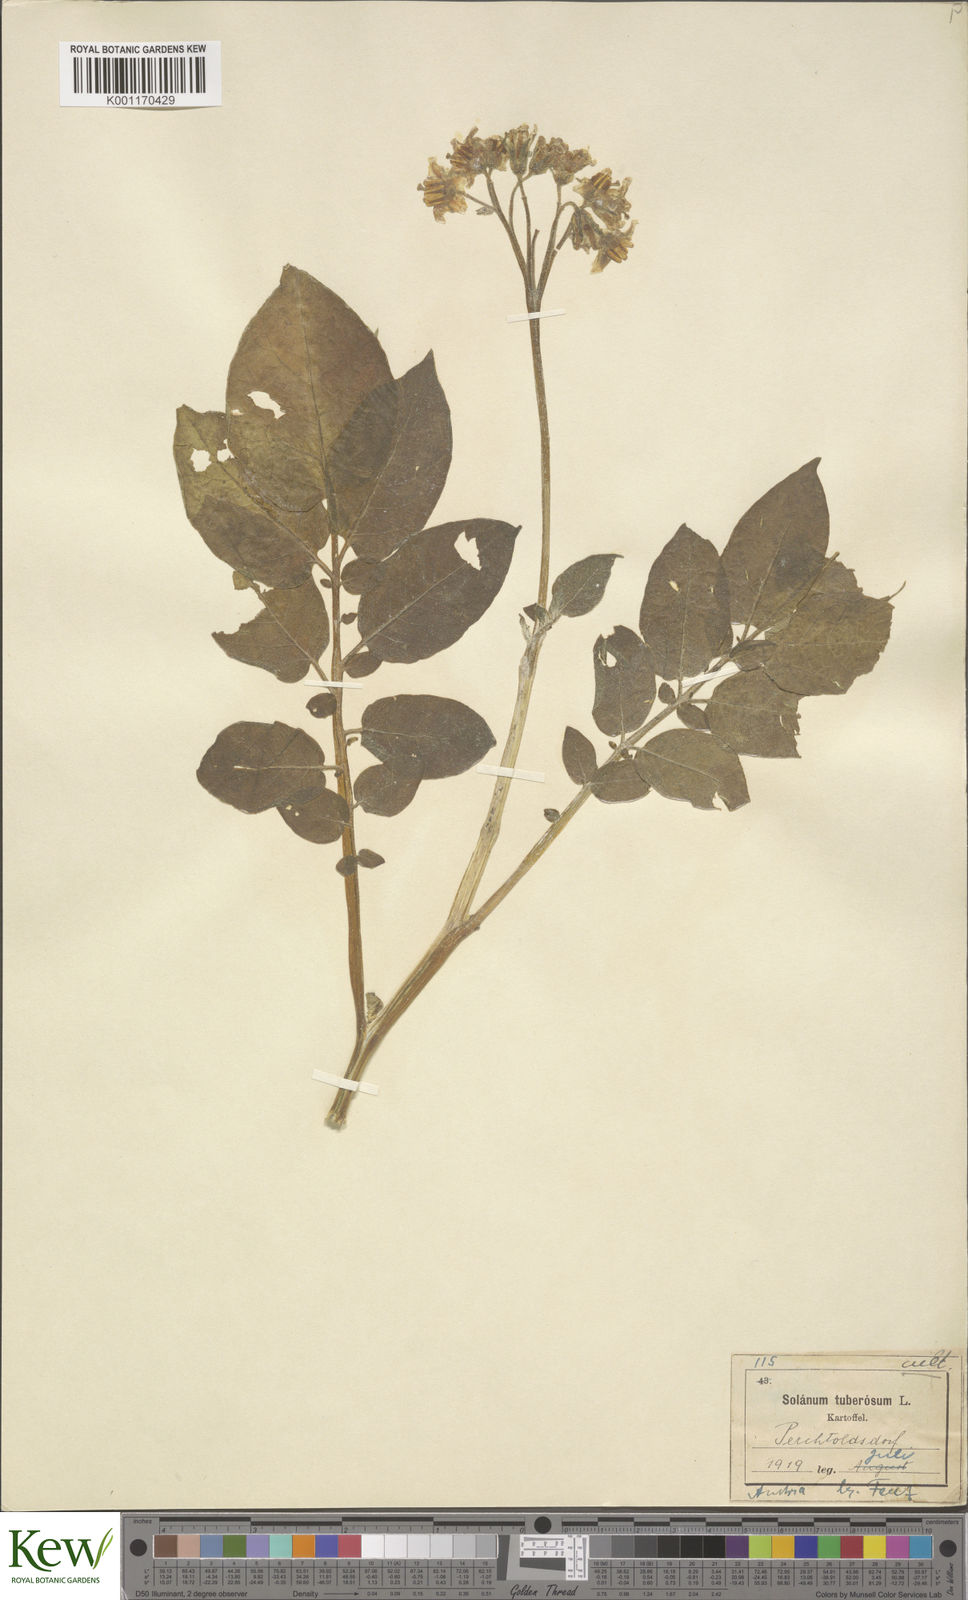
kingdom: Plantae
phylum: Tracheophyta
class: Magnoliopsida
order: Solanales
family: Solanaceae
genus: Solanum
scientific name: Solanum tuberosum
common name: Potato
